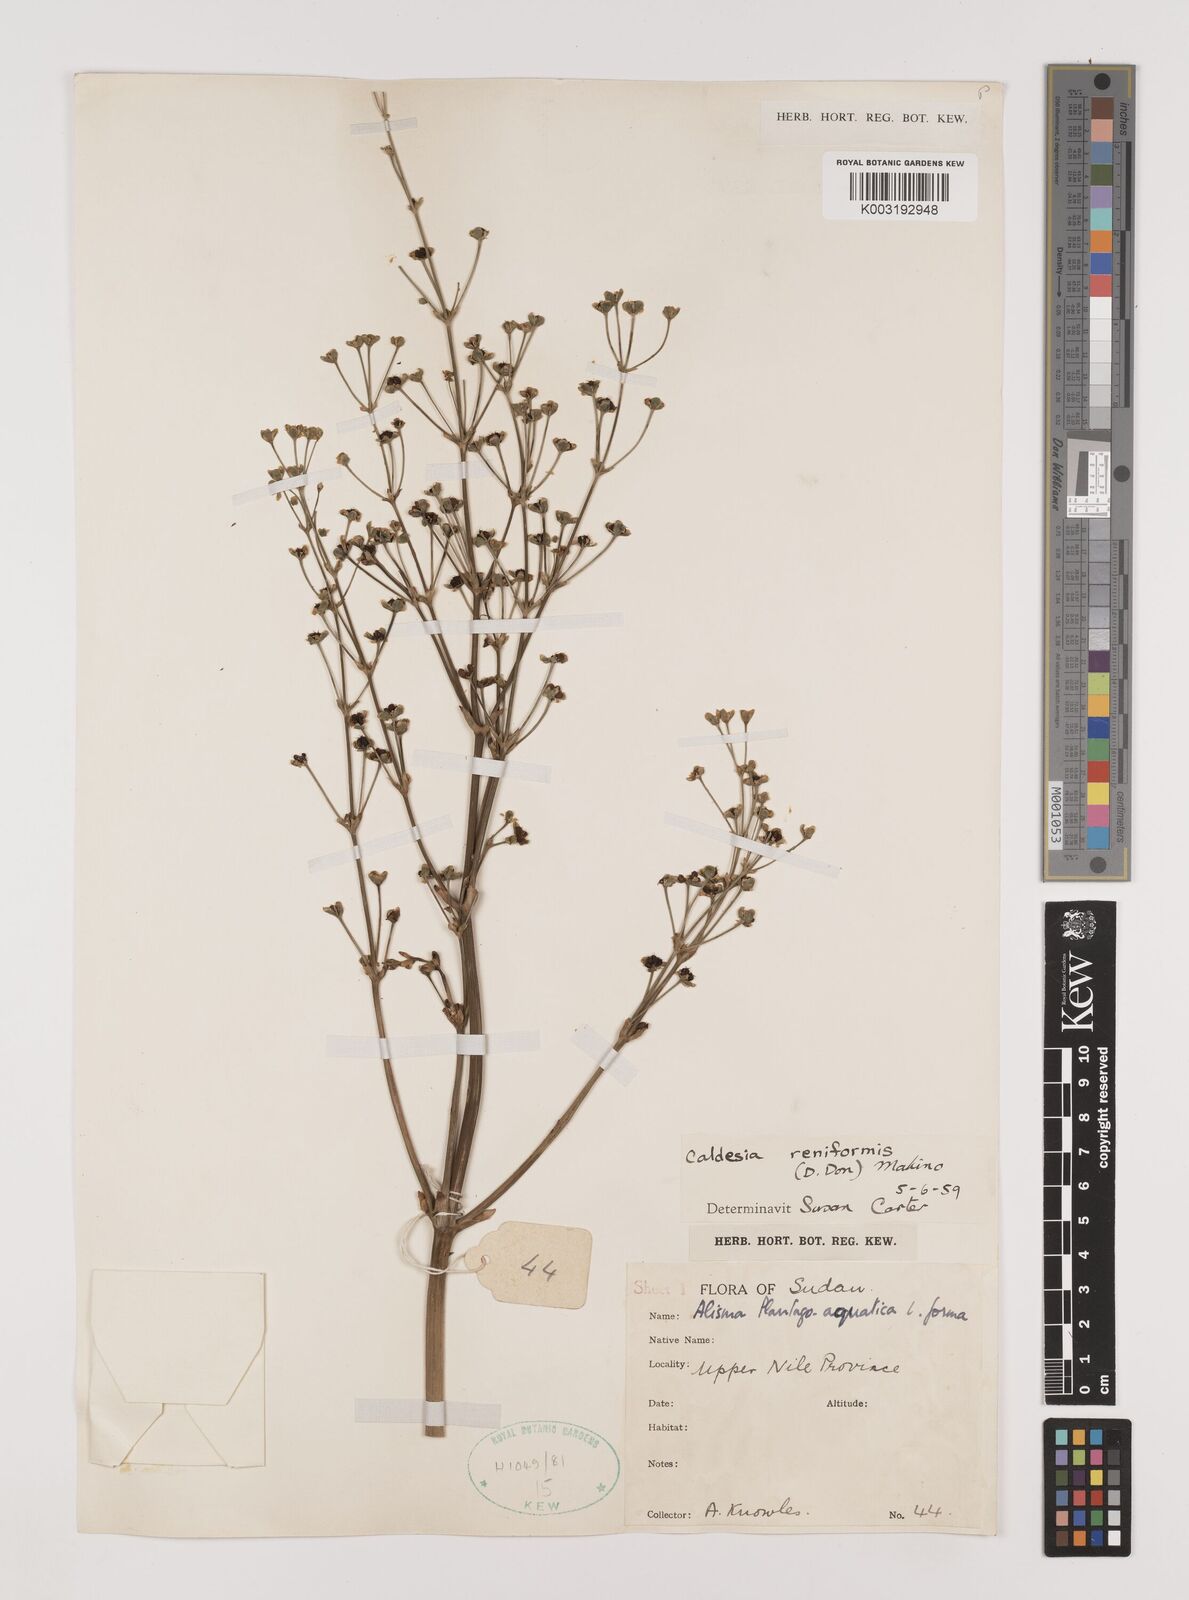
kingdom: Plantae
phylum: Tracheophyta
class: Liliopsida
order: Alismatales
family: Alismataceae
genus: Caldesia
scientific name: Caldesia parnassifolia
